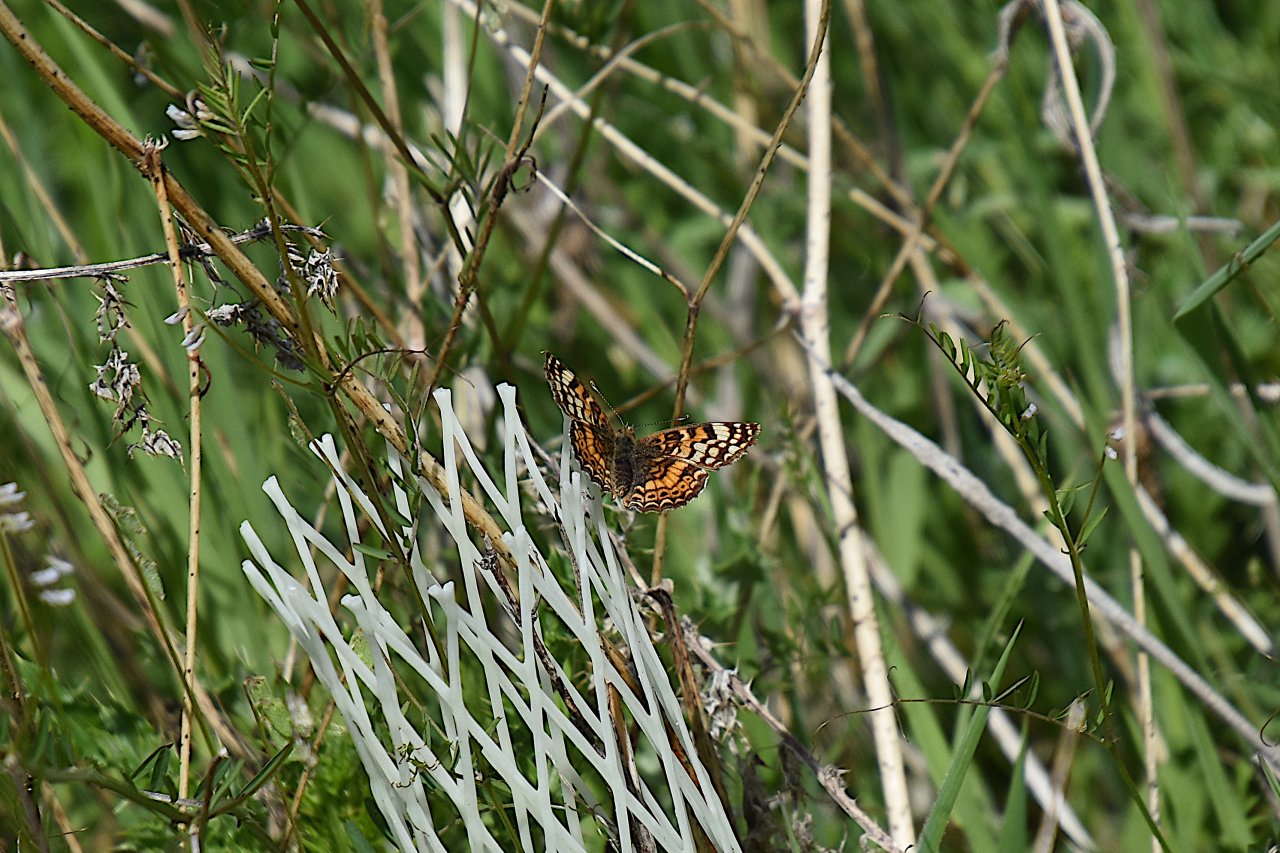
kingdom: Animalia
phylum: Arthropoda
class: Insecta
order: Lepidoptera
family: Nymphalidae
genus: Eresia
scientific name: Eresia aveyrona
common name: Mylitta Crescent
